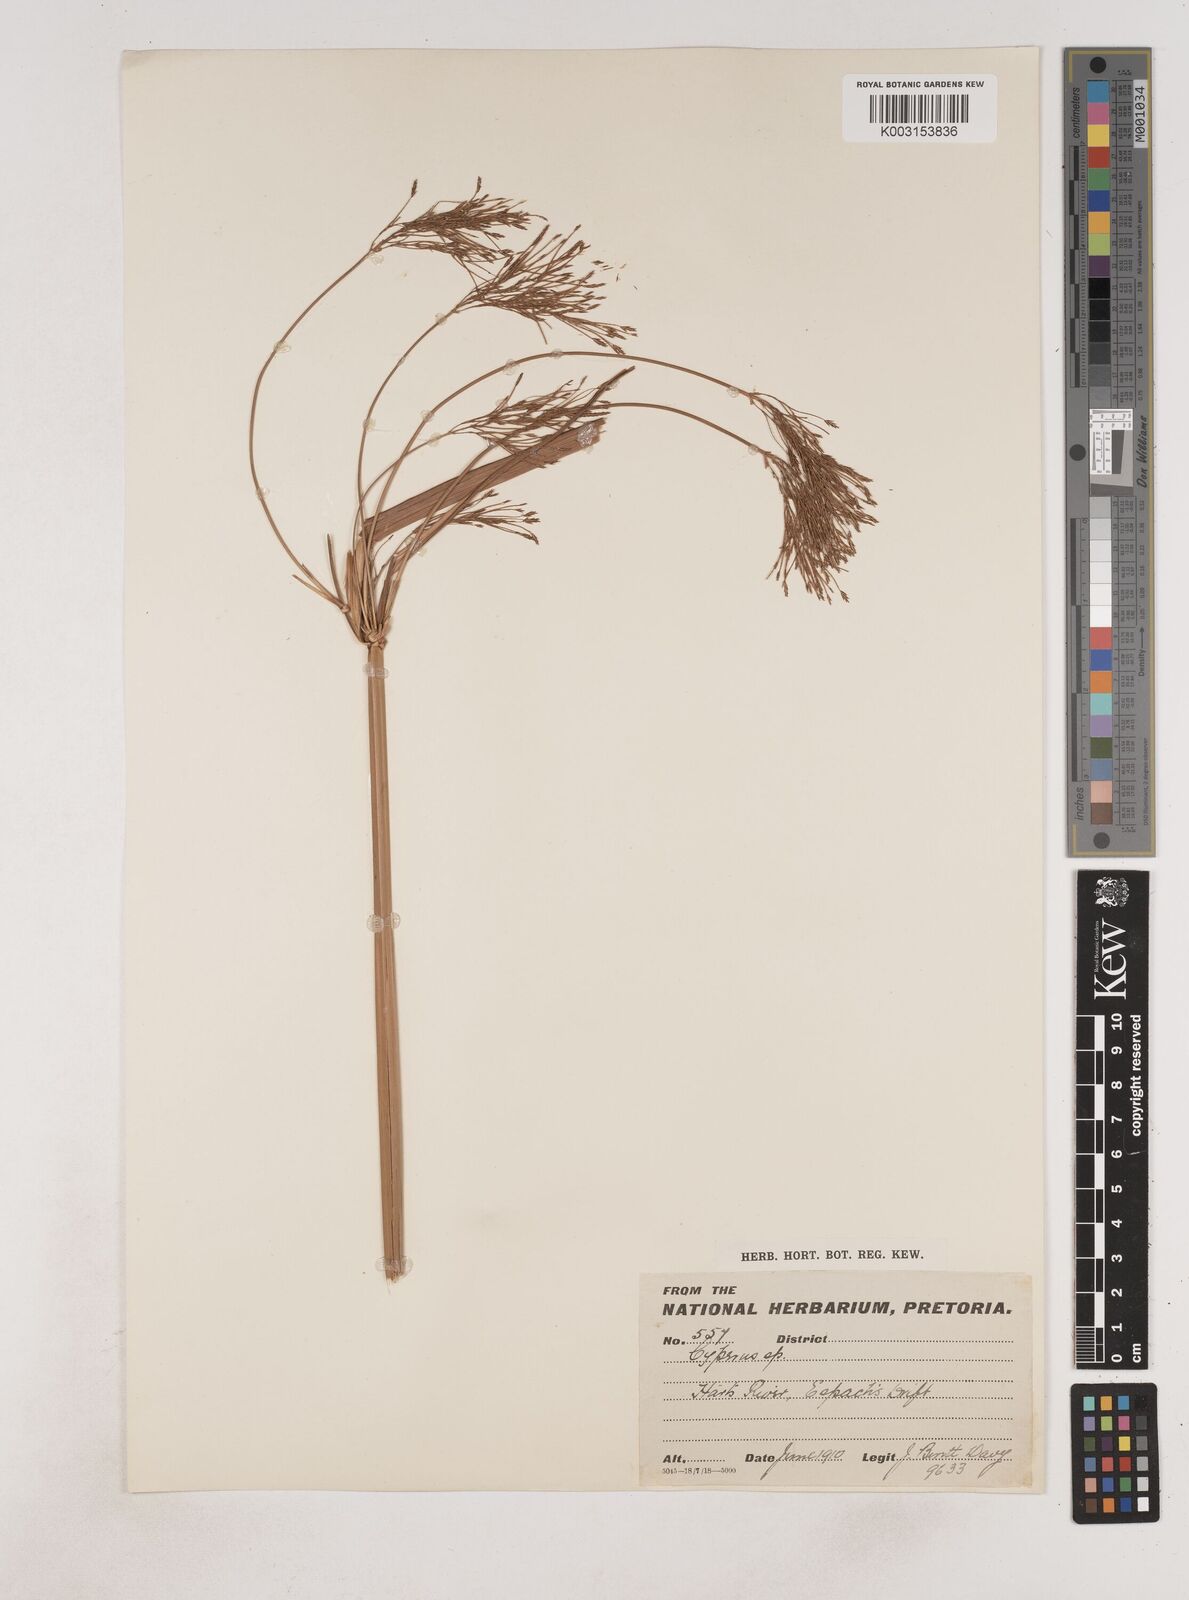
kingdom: Plantae
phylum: Tracheophyta
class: Liliopsida
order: Poales
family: Cyperaceae
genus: Cyperus
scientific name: Cyperus
